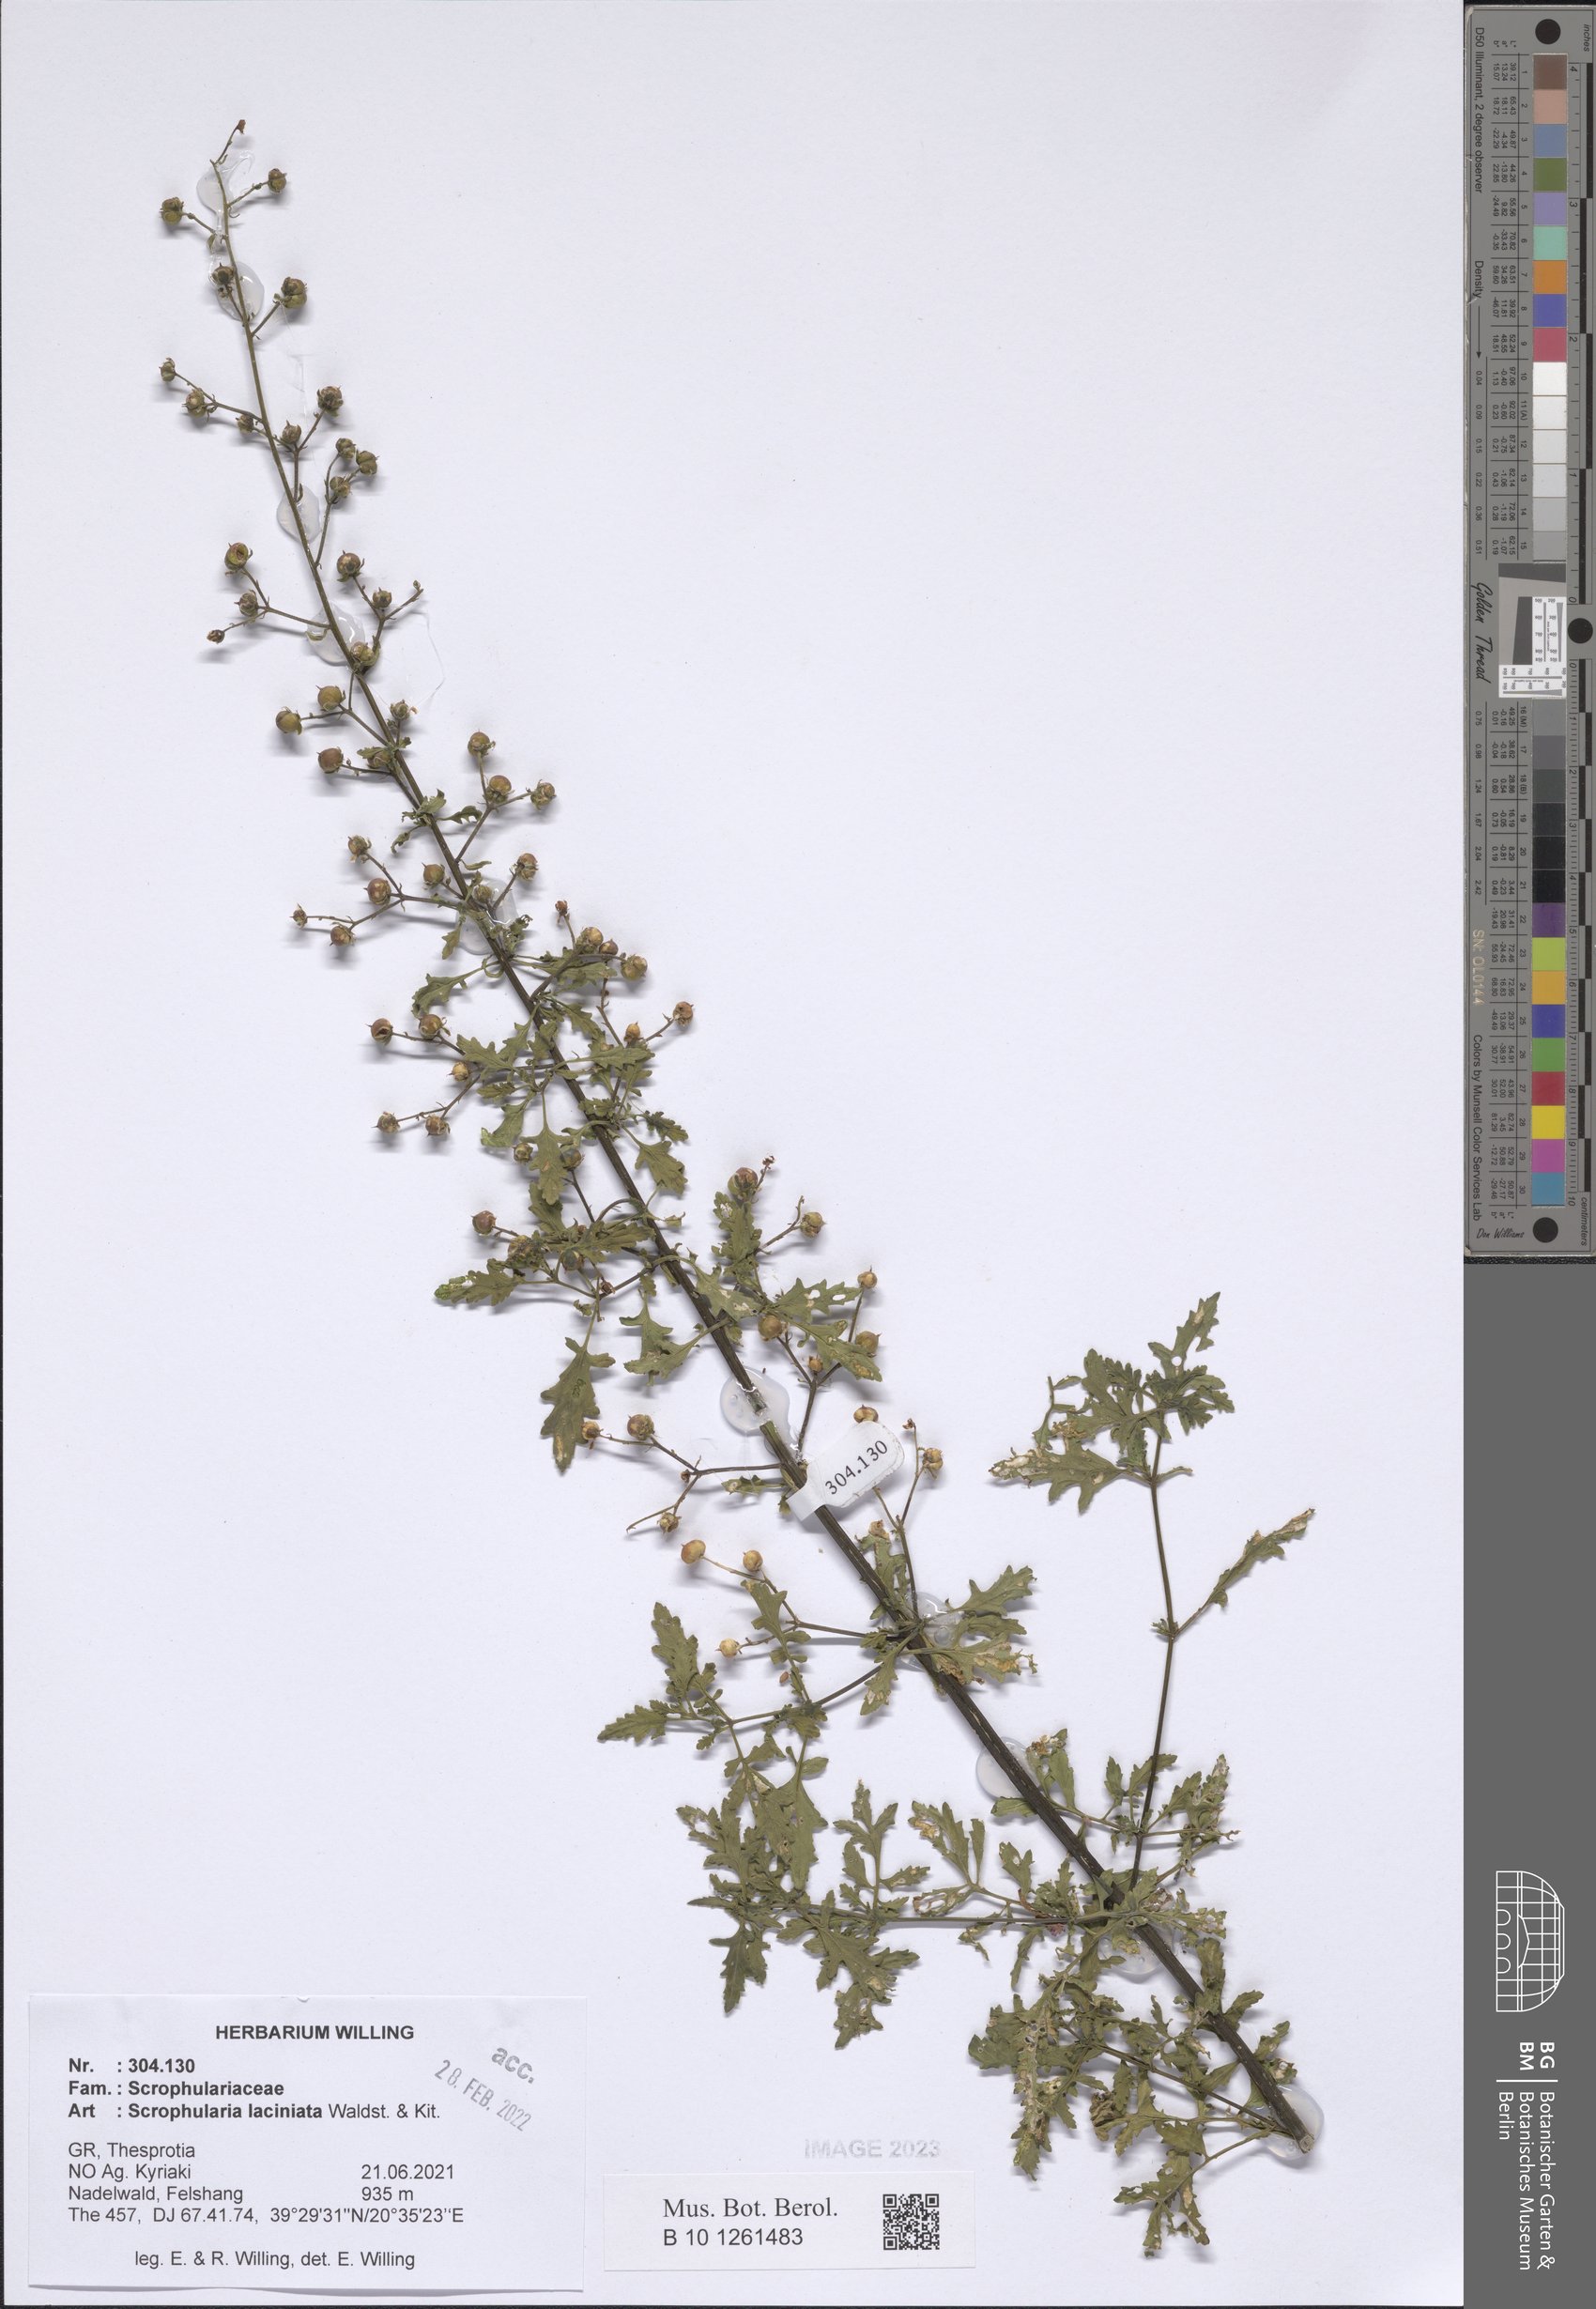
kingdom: Plantae
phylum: Tracheophyta
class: Magnoliopsida
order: Lamiales
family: Scrophulariaceae
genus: Scrophularia
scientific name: Scrophularia laciniata
